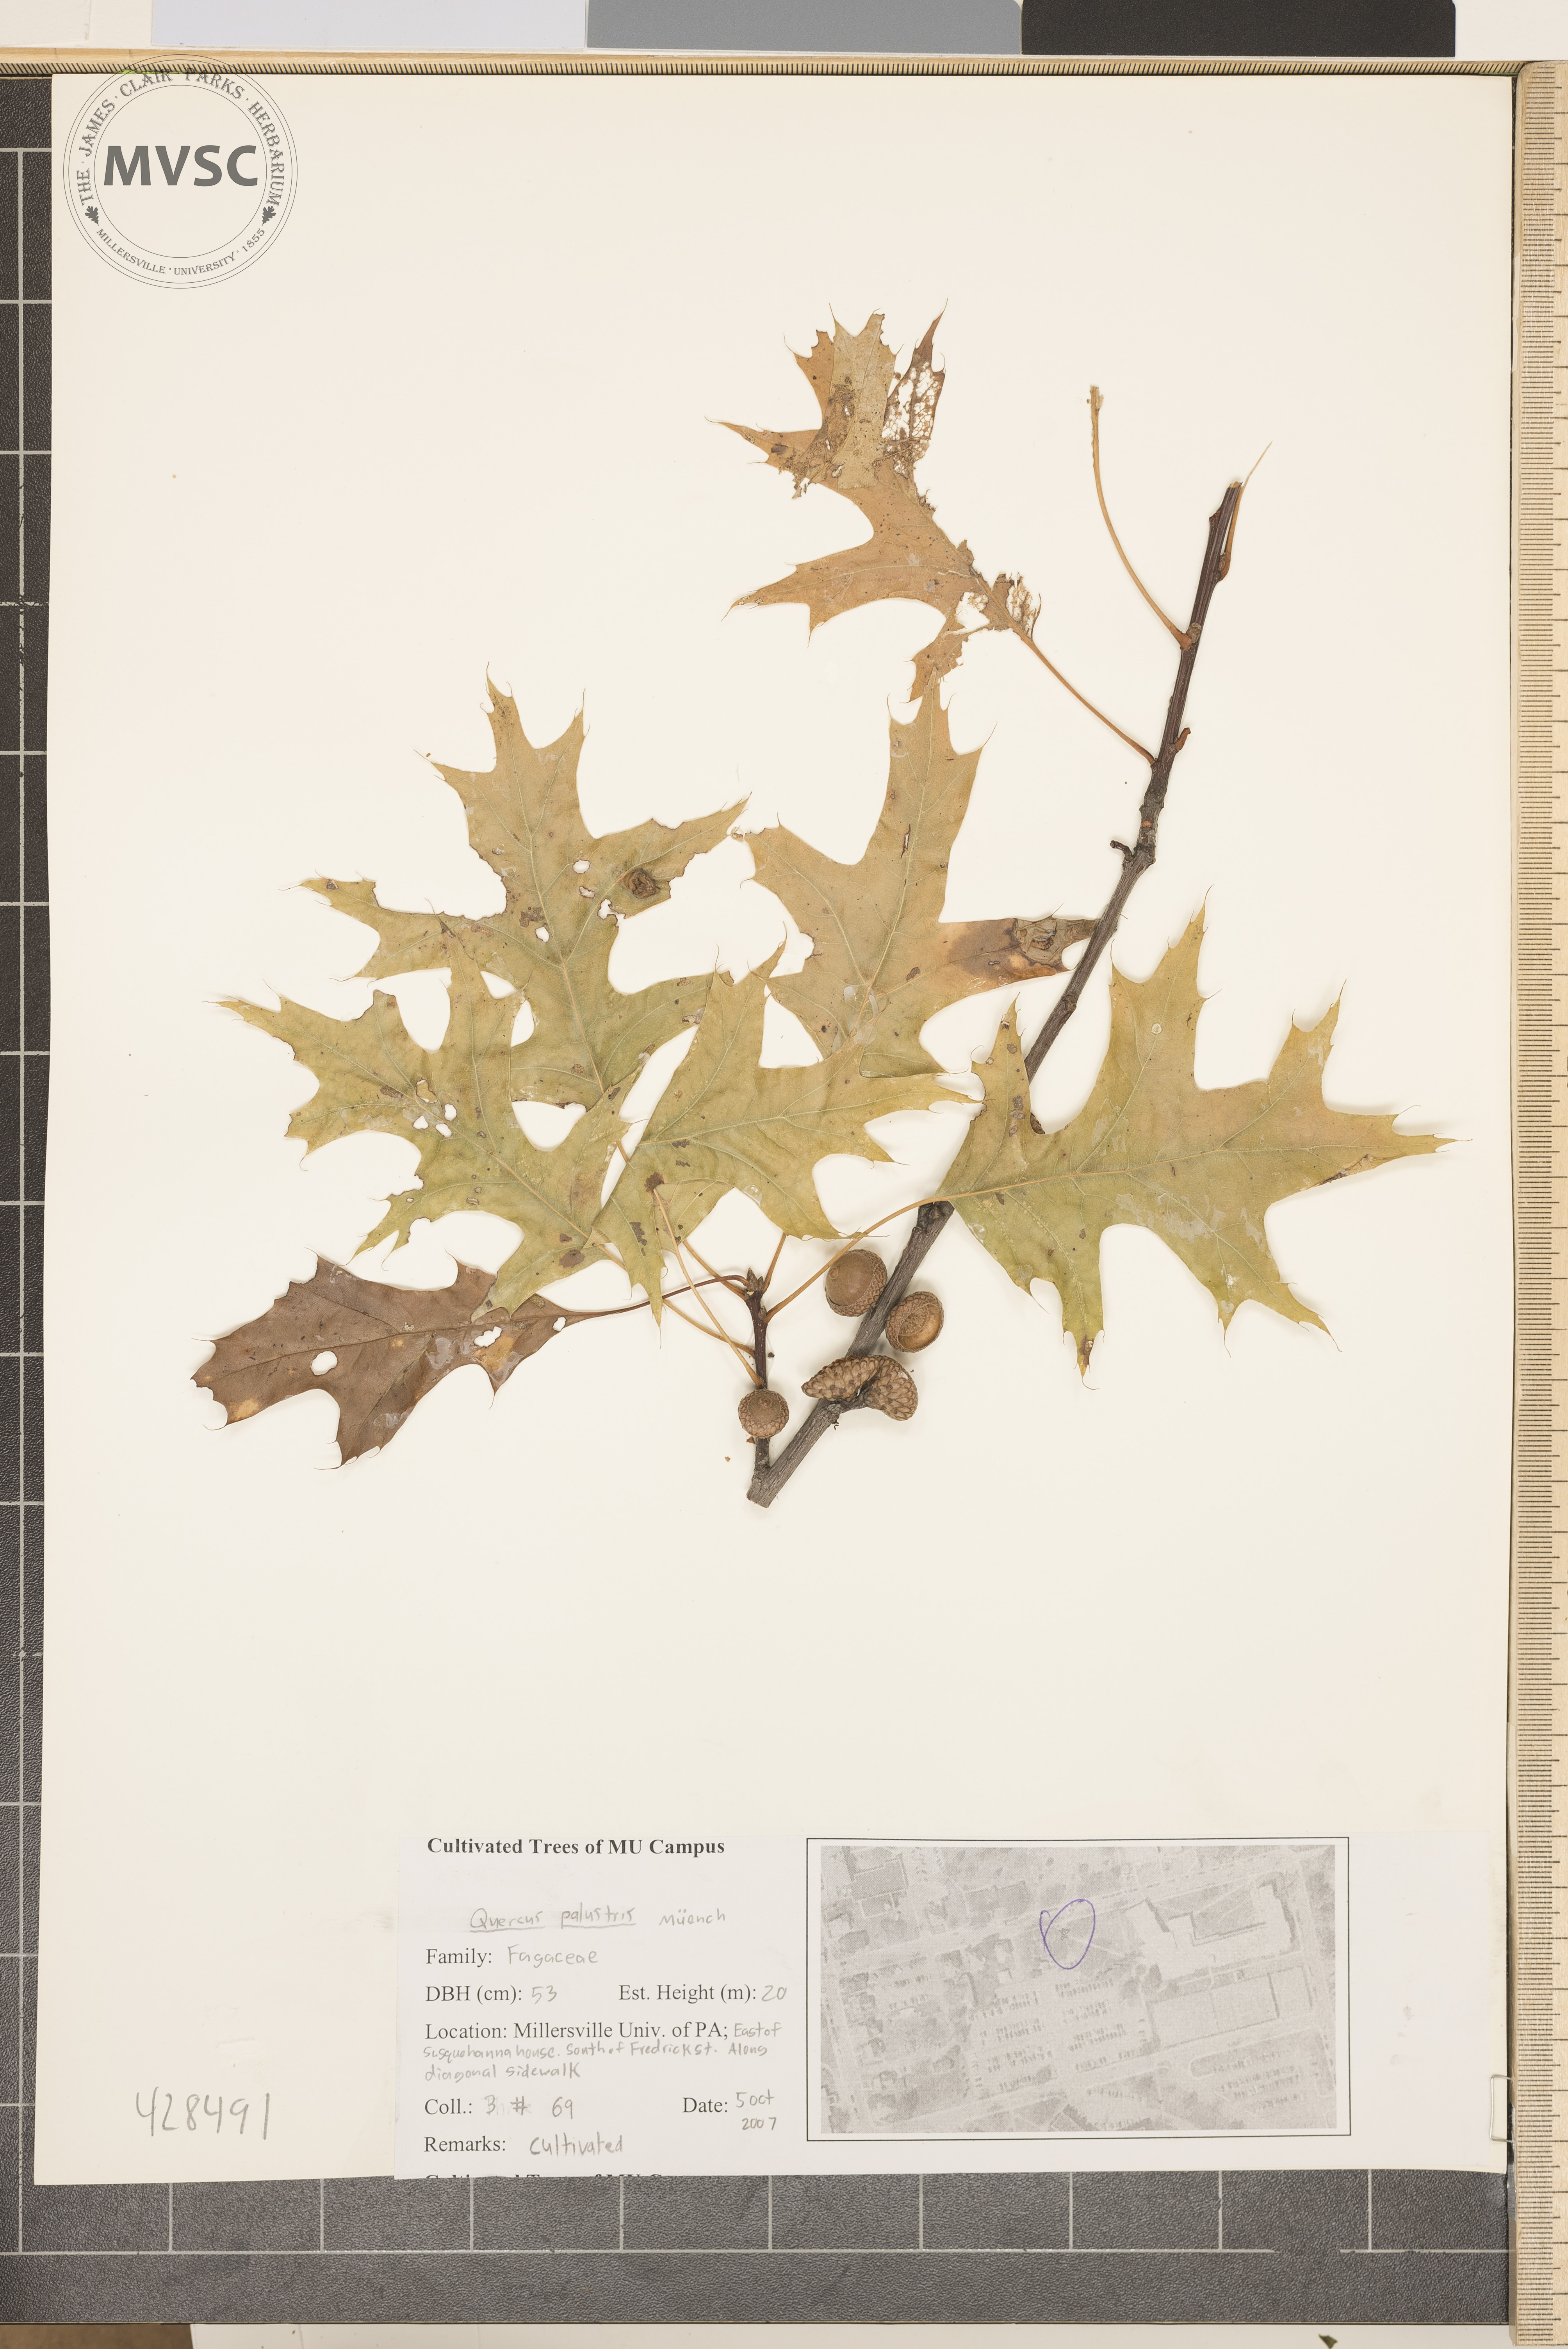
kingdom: Plantae
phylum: Tracheophyta
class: Magnoliopsida
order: Fagales
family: Fagaceae
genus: Quercus
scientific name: Quercus palustris
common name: Pin Oak
